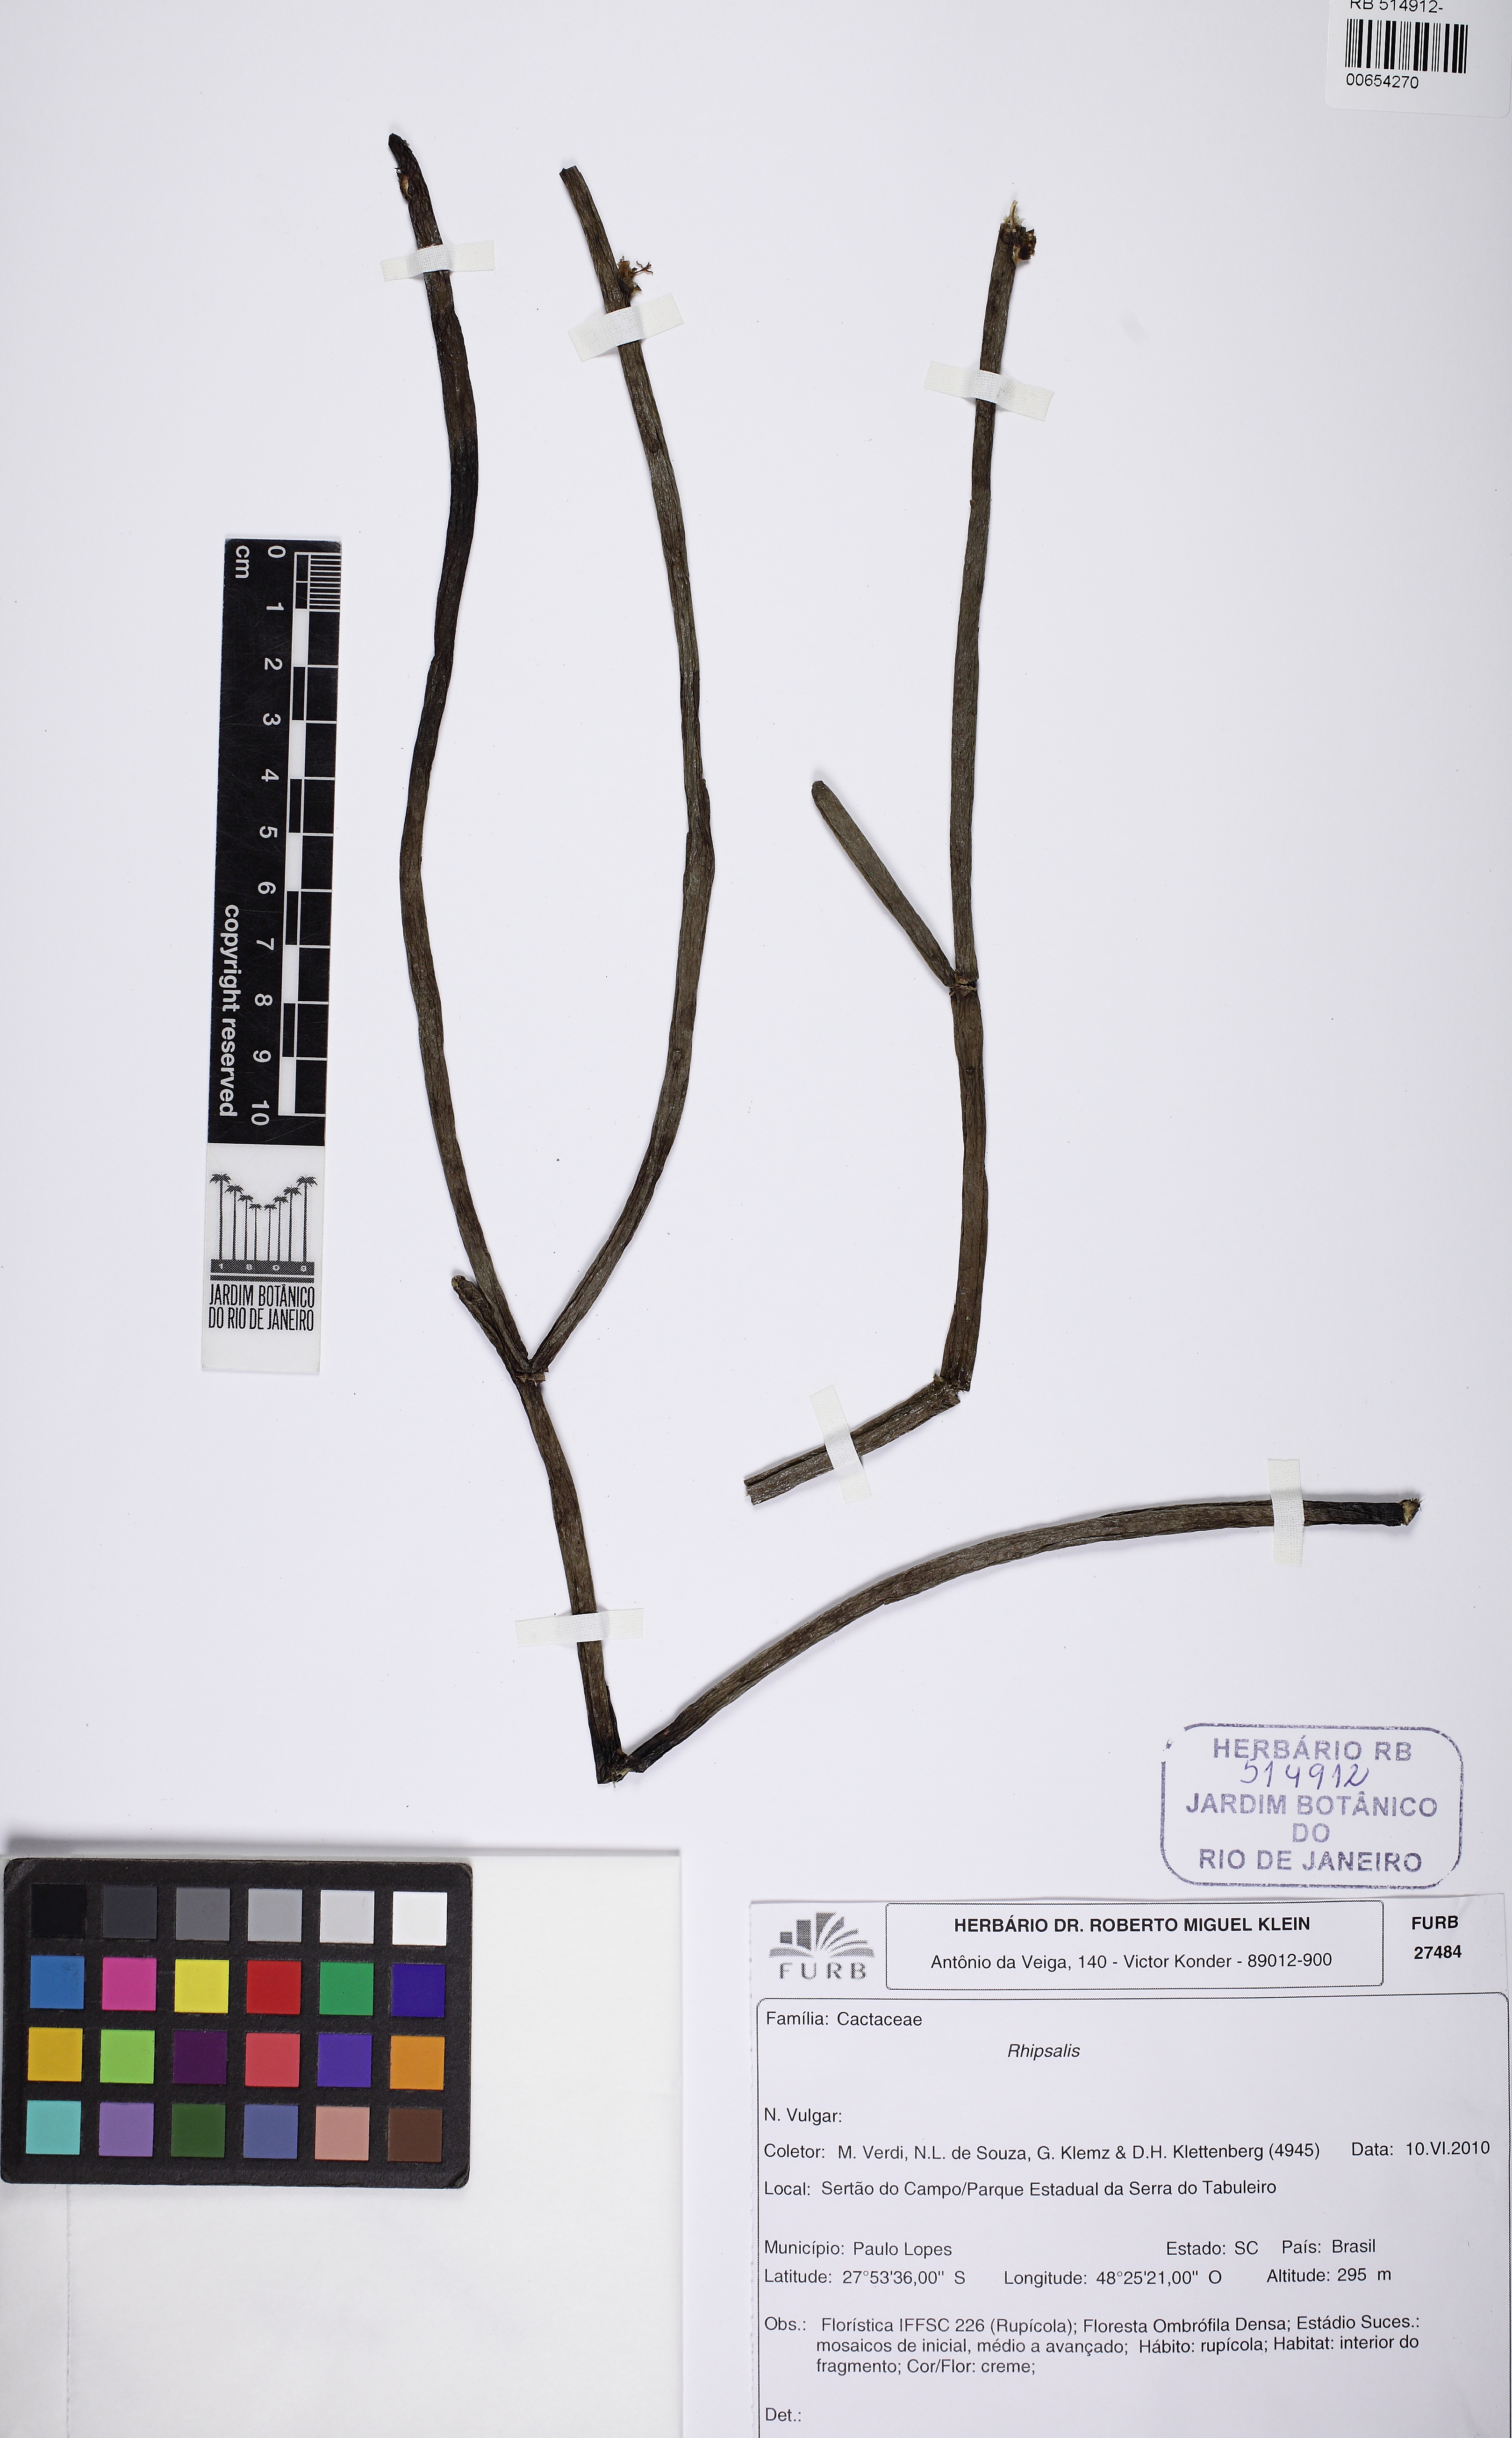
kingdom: Plantae
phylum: Tracheophyta
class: Magnoliopsida
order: Caryophyllales
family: Cactaceae
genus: Rhipsalis
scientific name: Rhipsalis floccosa
